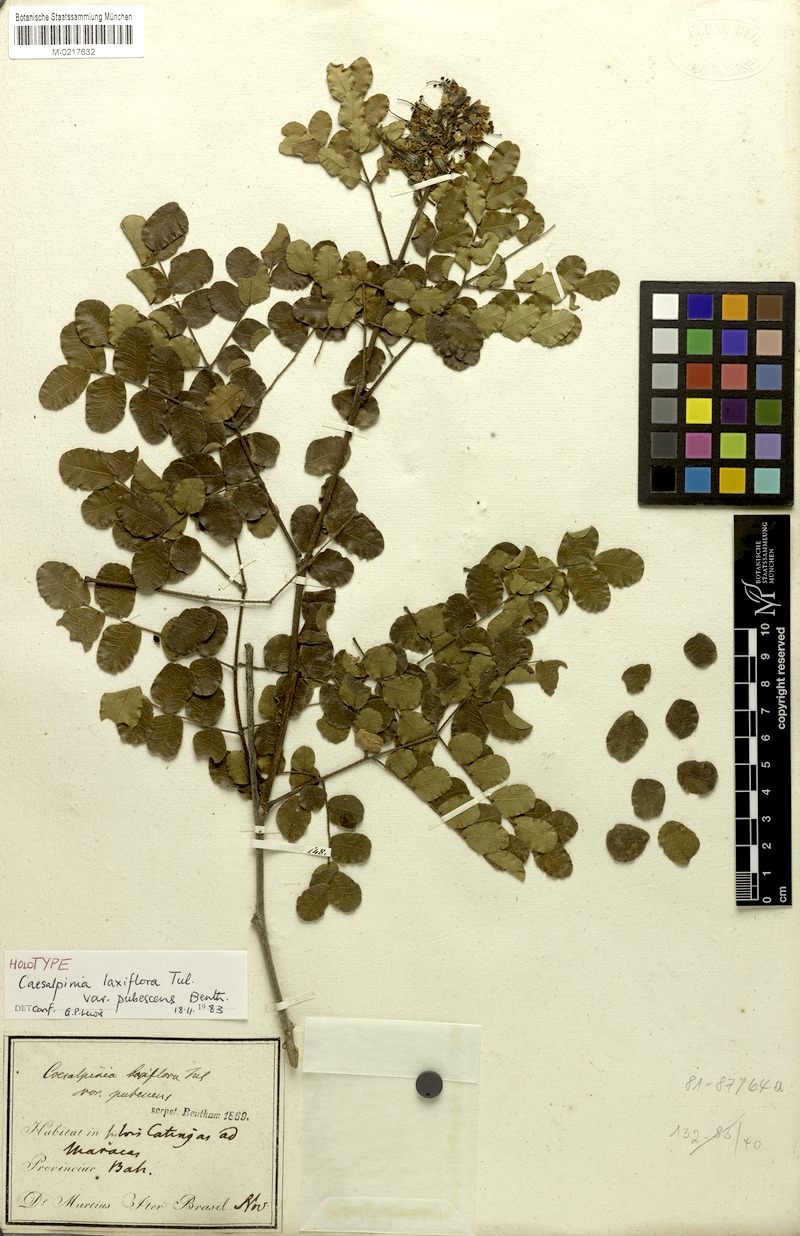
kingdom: Plantae
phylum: Tracheophyta
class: Magnoliopsida
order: Fabales
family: Fabaceae
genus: Cenostigma
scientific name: Cenostigma laxiflorum
